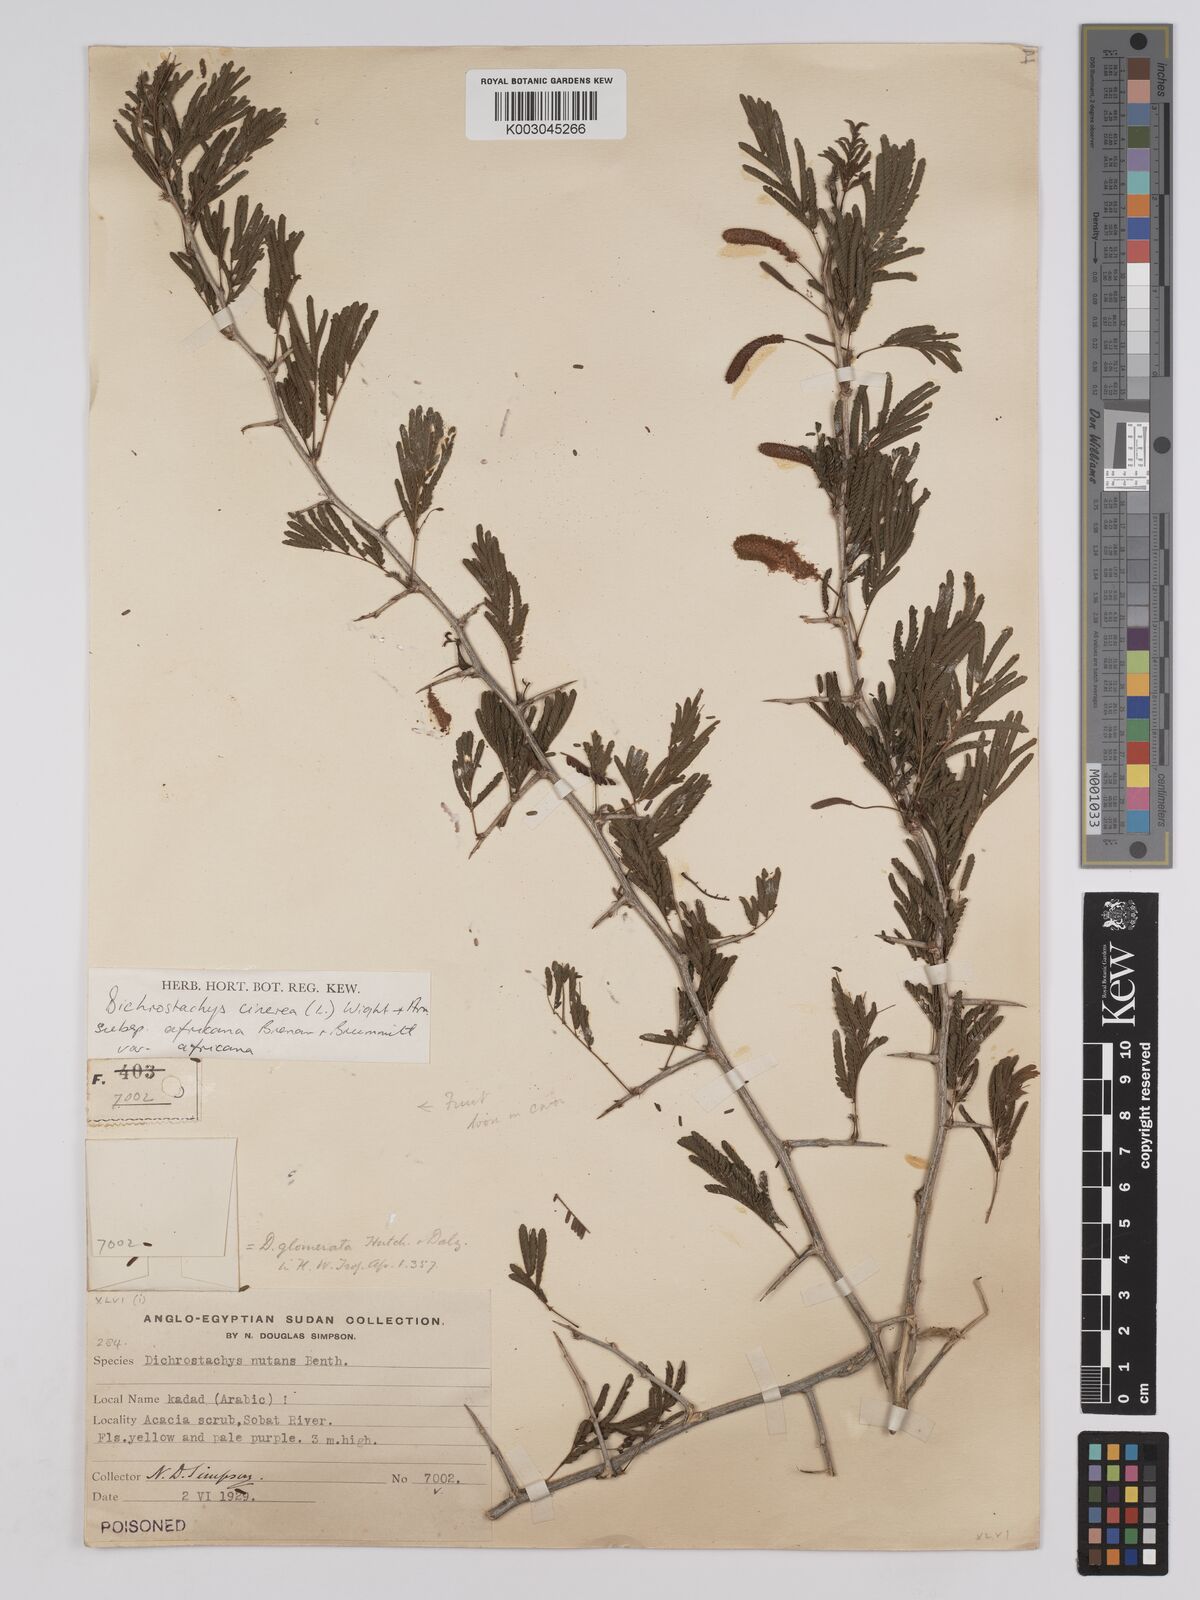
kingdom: Plantae
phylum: Tracheophyta
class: Magnoliopsida
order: Fabales
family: Fabaceae
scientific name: Fabaceae
